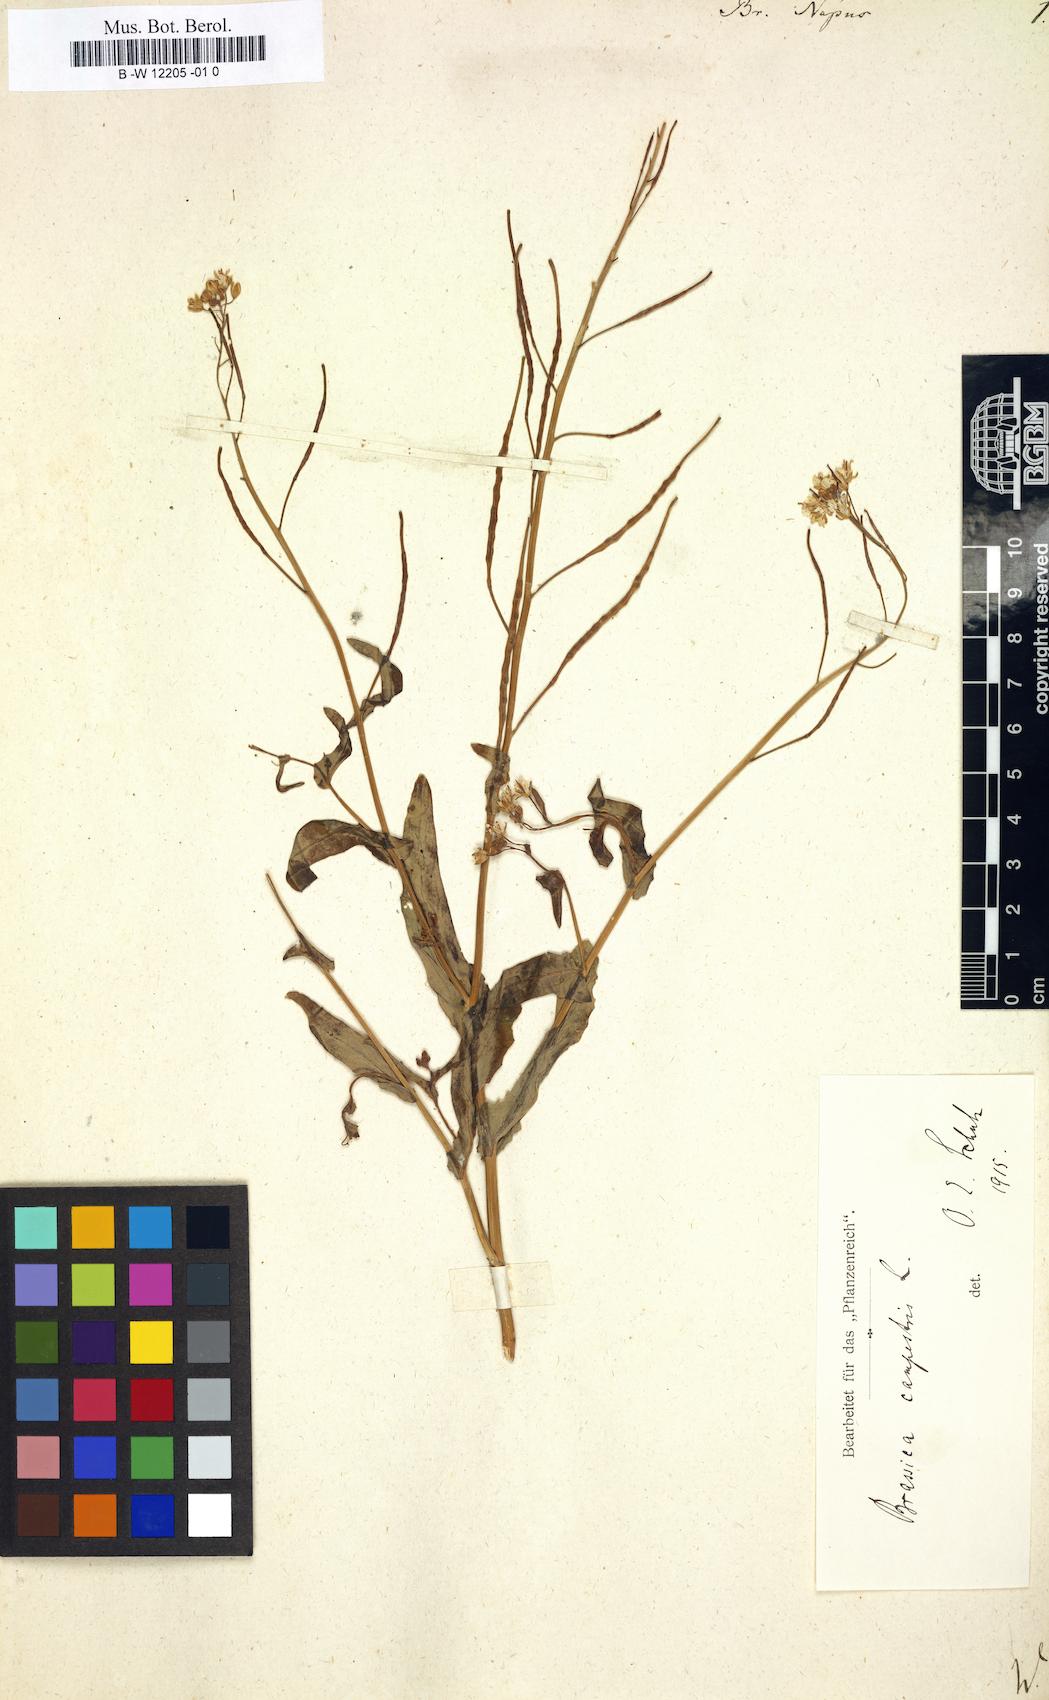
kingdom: Plantae
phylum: Tracheophyta
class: Magnoliopsida
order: Brassicales
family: Brassicaceae
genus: Brassica
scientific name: Brassica napus
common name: Rape
